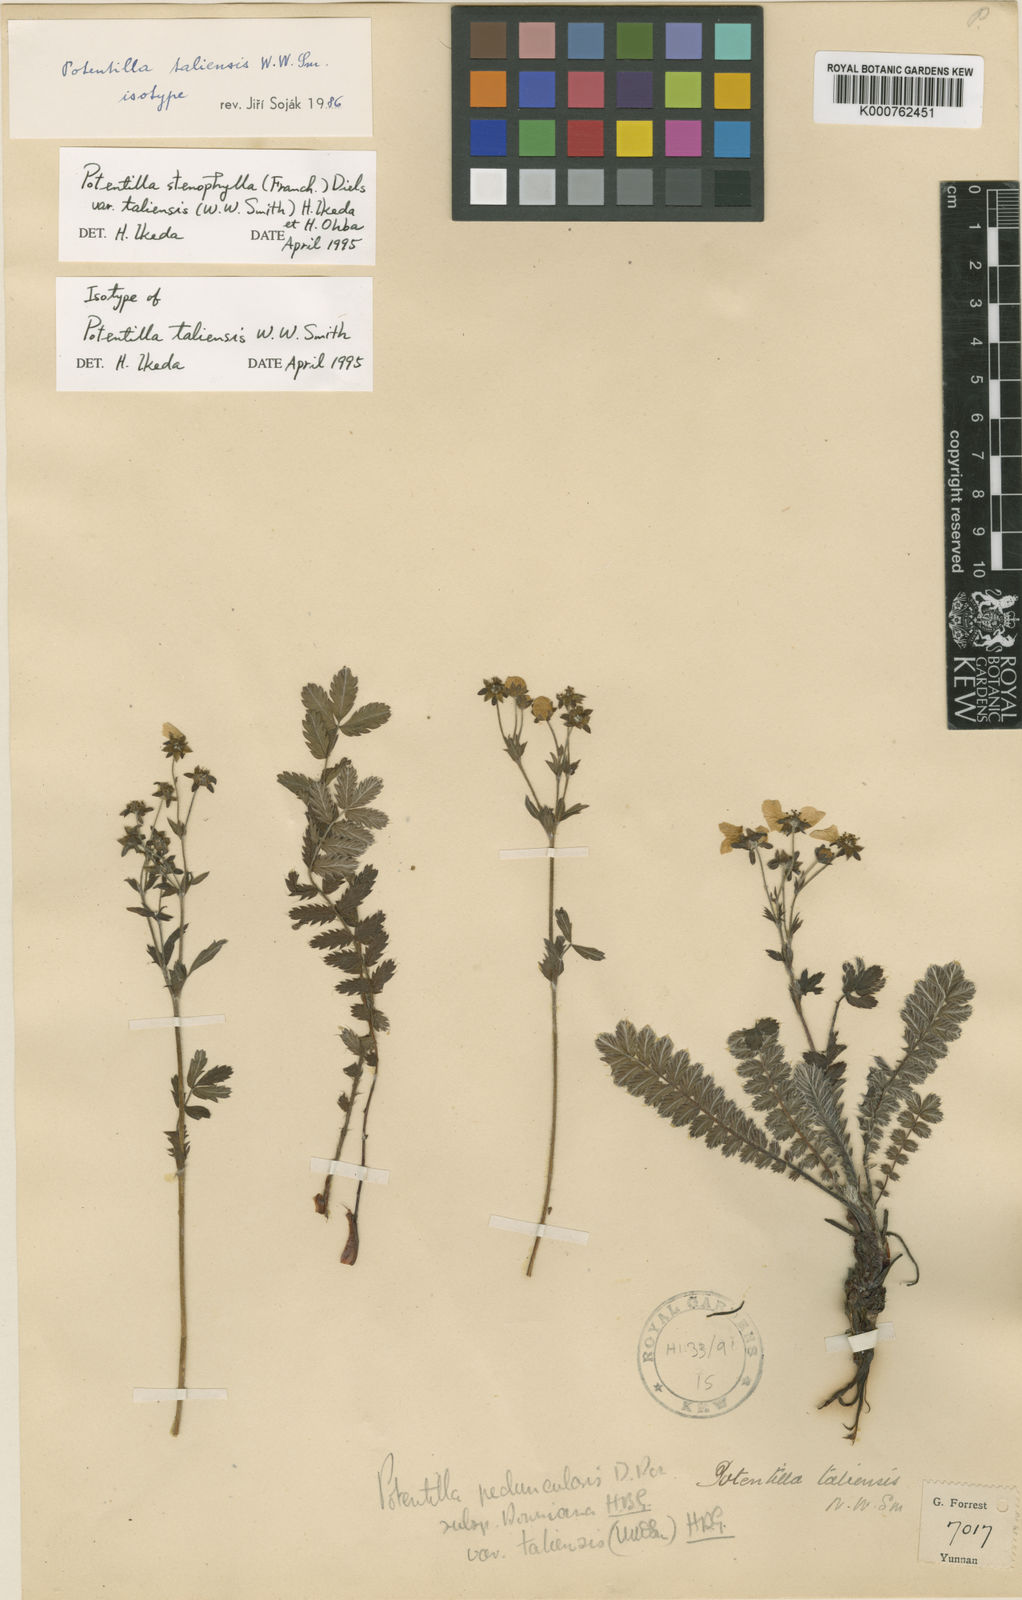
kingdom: Plantae
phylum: Tracheophyta
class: Magnoliopsida
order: Rosales
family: Rosaceae
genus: Argentina
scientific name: Argentina taliensis
